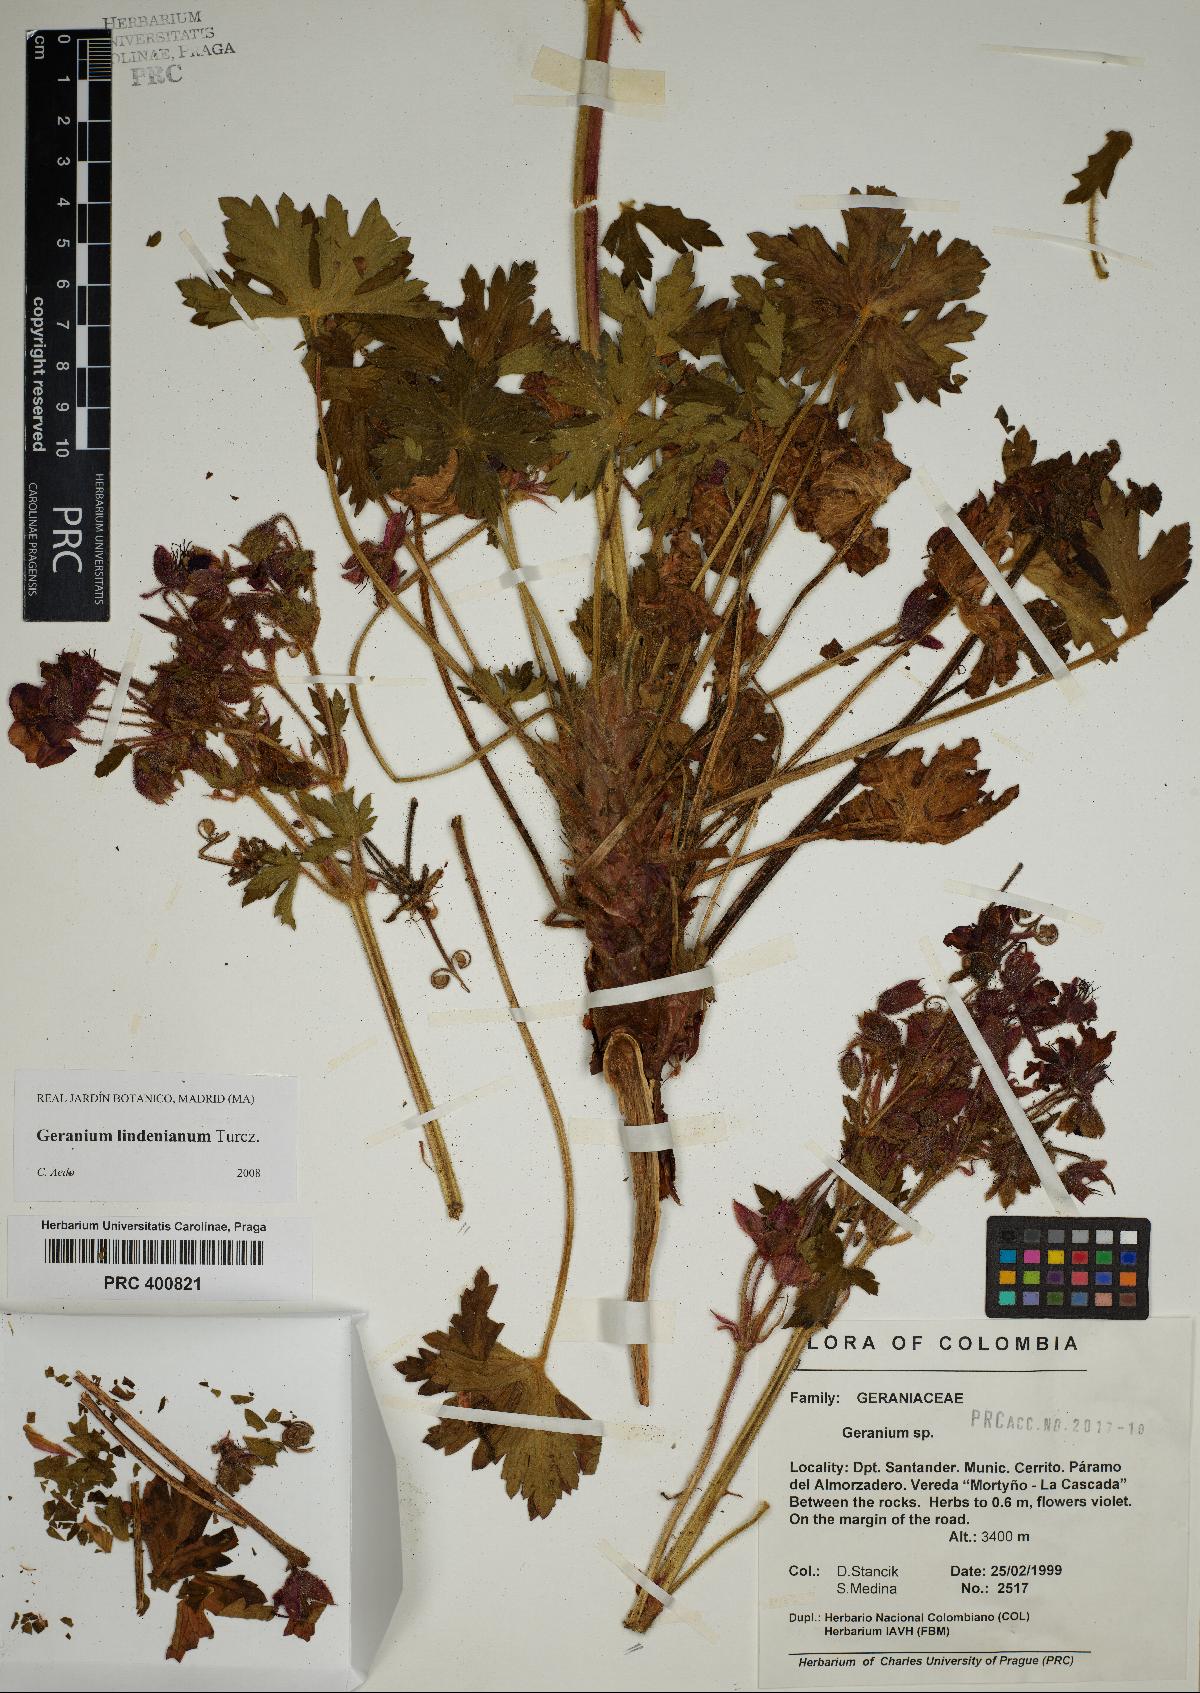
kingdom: Plantae
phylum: Tracheophyta
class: Magnoliopsida
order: Geraniales
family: Geraniaceae
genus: Geranium
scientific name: Geranium lindenianum
